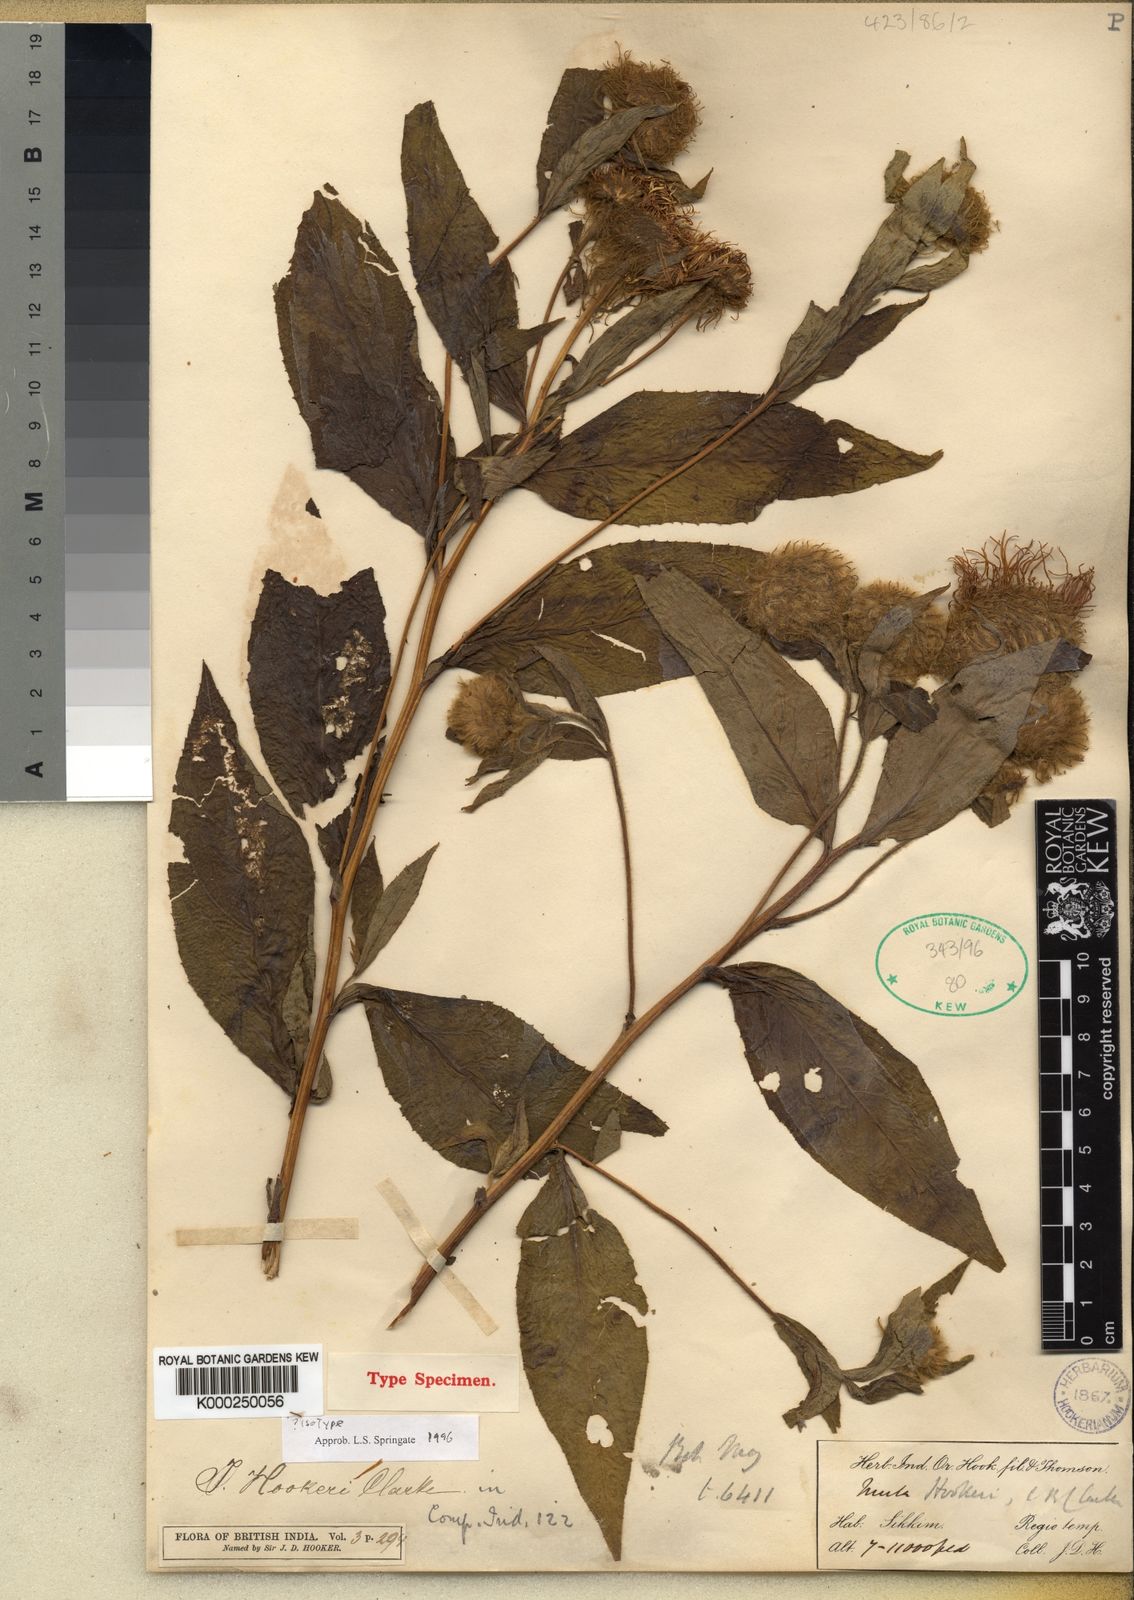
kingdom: Plantae
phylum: Tracheophyta
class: Magnoliopsida
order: Asterales
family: Asteraceae
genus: Inula
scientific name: Inula hookeri
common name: Hooker's-fleabane
